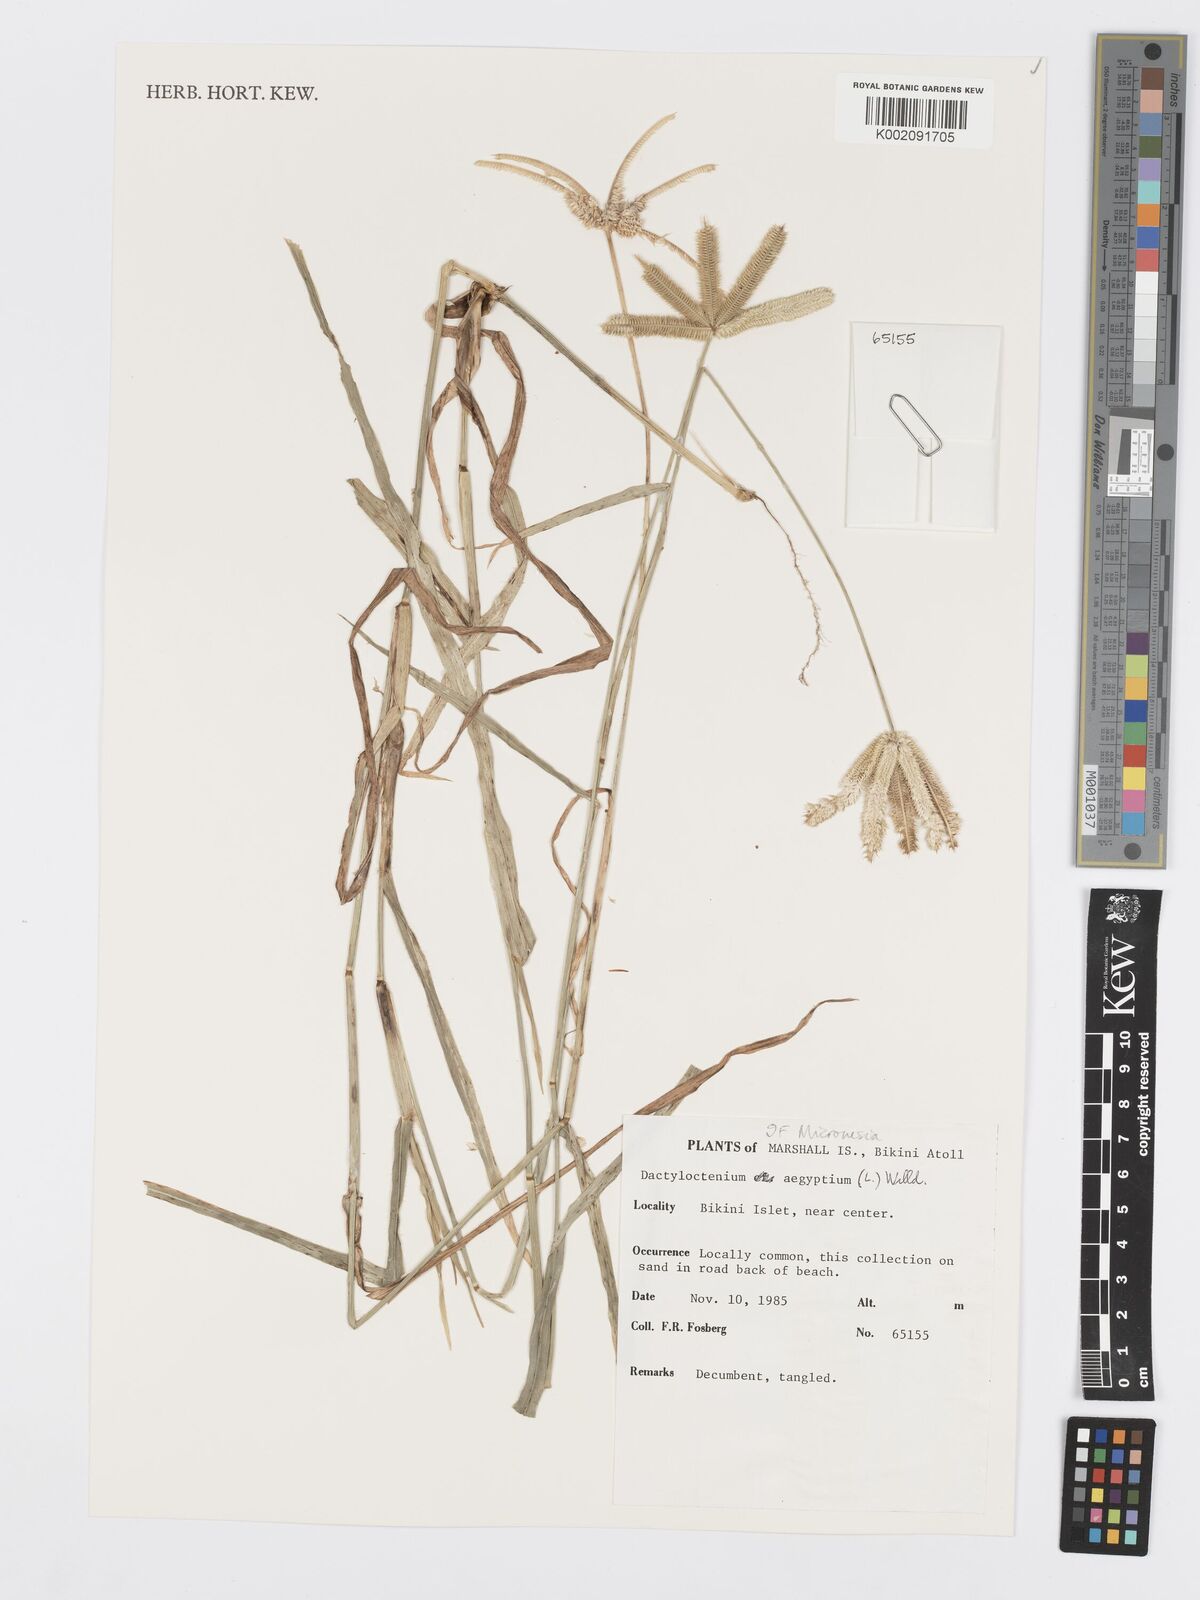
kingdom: Plantae
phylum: Tracheophyta
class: Liliopsida
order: Poales
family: Poaceae
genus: Dactyloctenium
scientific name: Dactyloctenium aegyptium
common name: Egyptian grass
